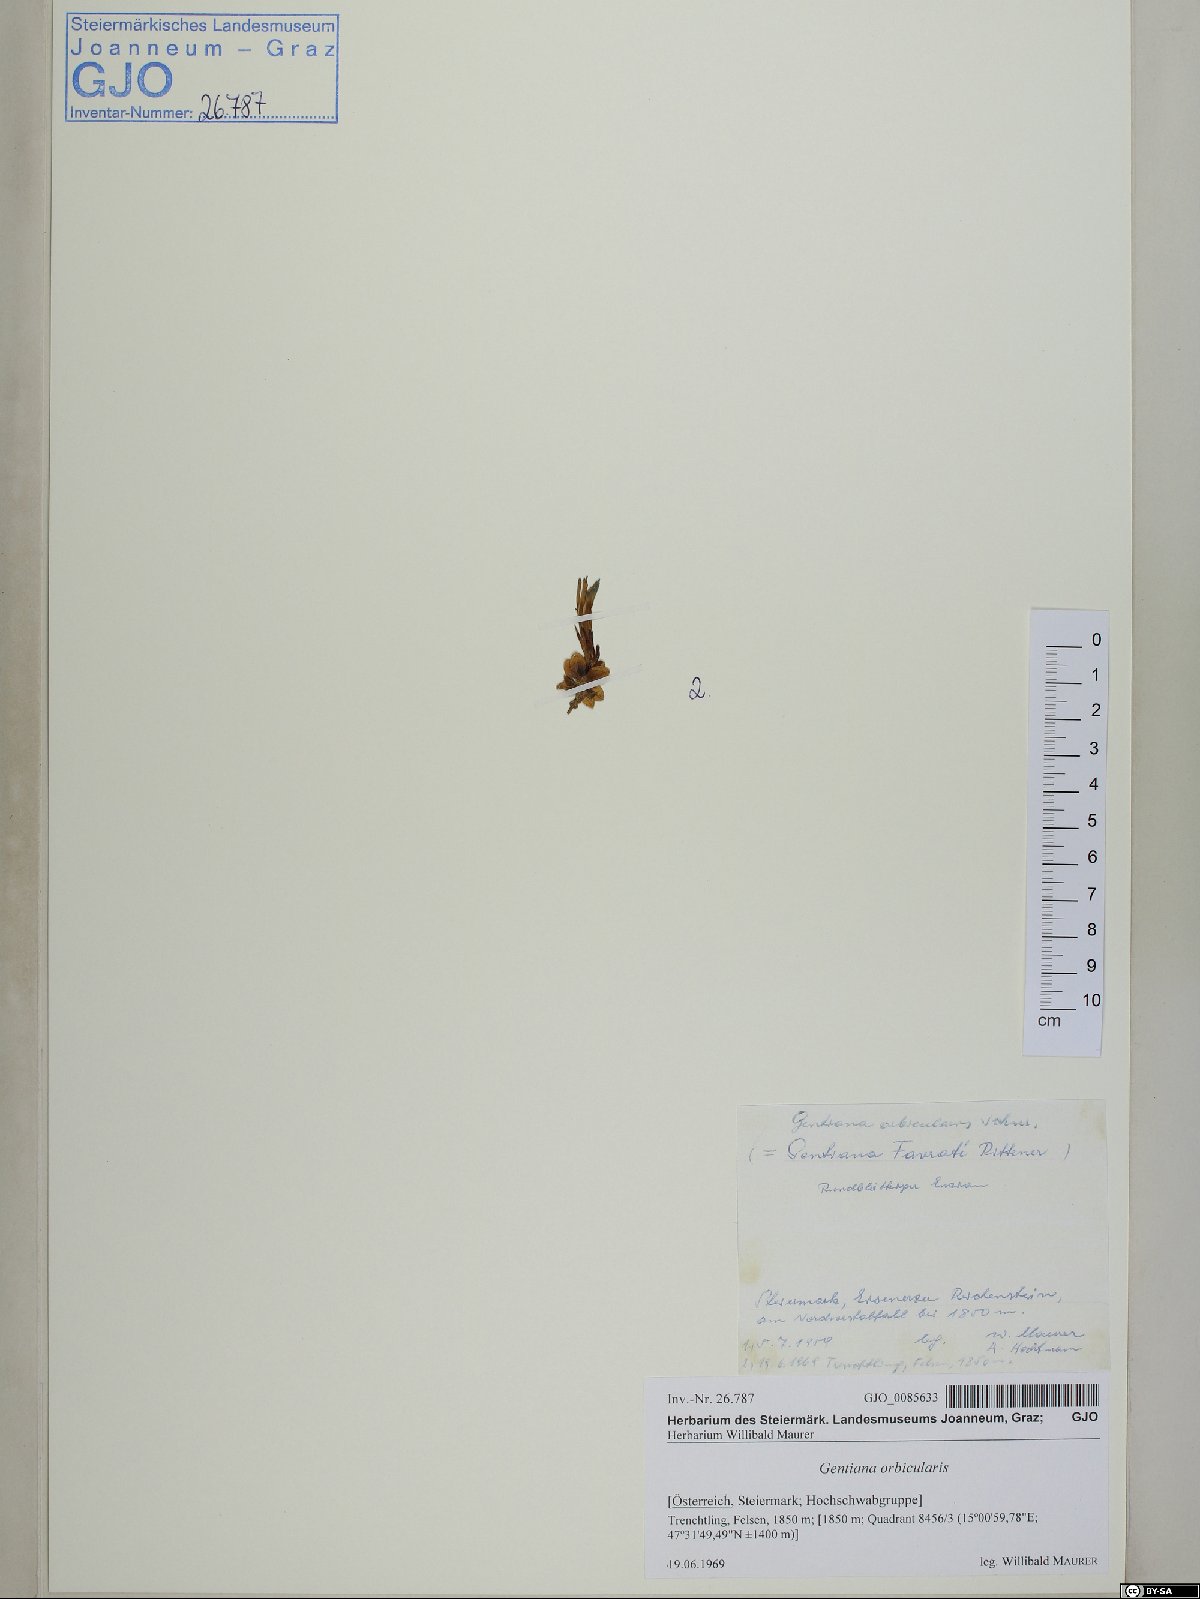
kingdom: Plantae
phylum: Tracheophyta
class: Magnoliopsida
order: Gentianales
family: Gentianaceae
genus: Gentiana
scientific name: Gentiana orbicularis
